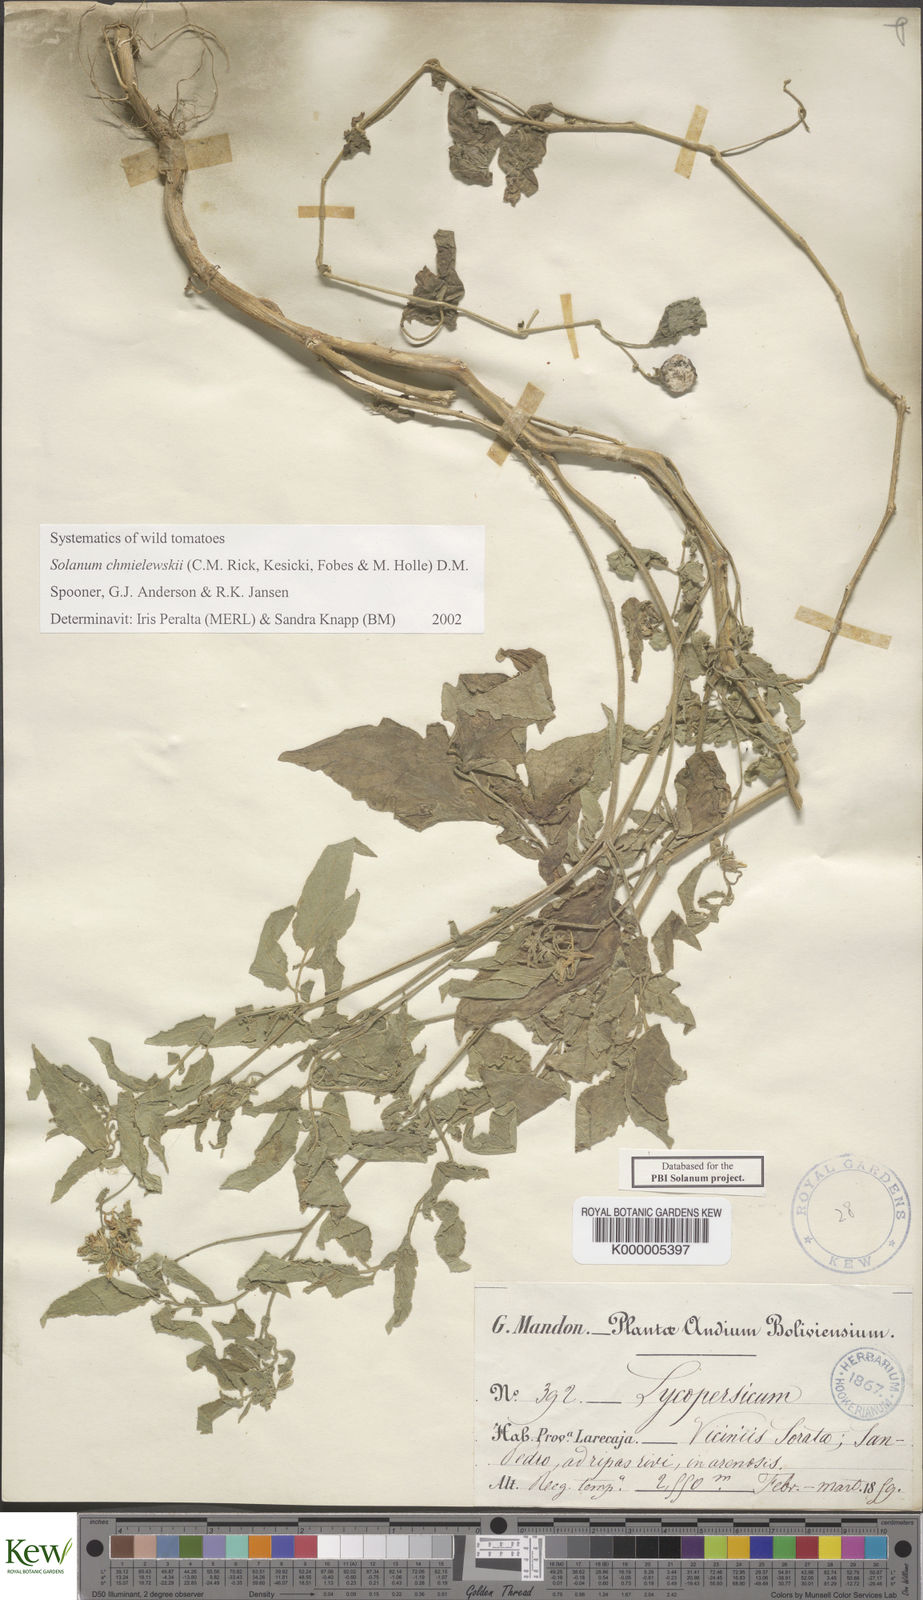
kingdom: Plantae
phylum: Tracheophyta
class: Magnoliopsida
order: Solanales
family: Solanaceae
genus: Solanum
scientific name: Solanum chmielewskii
